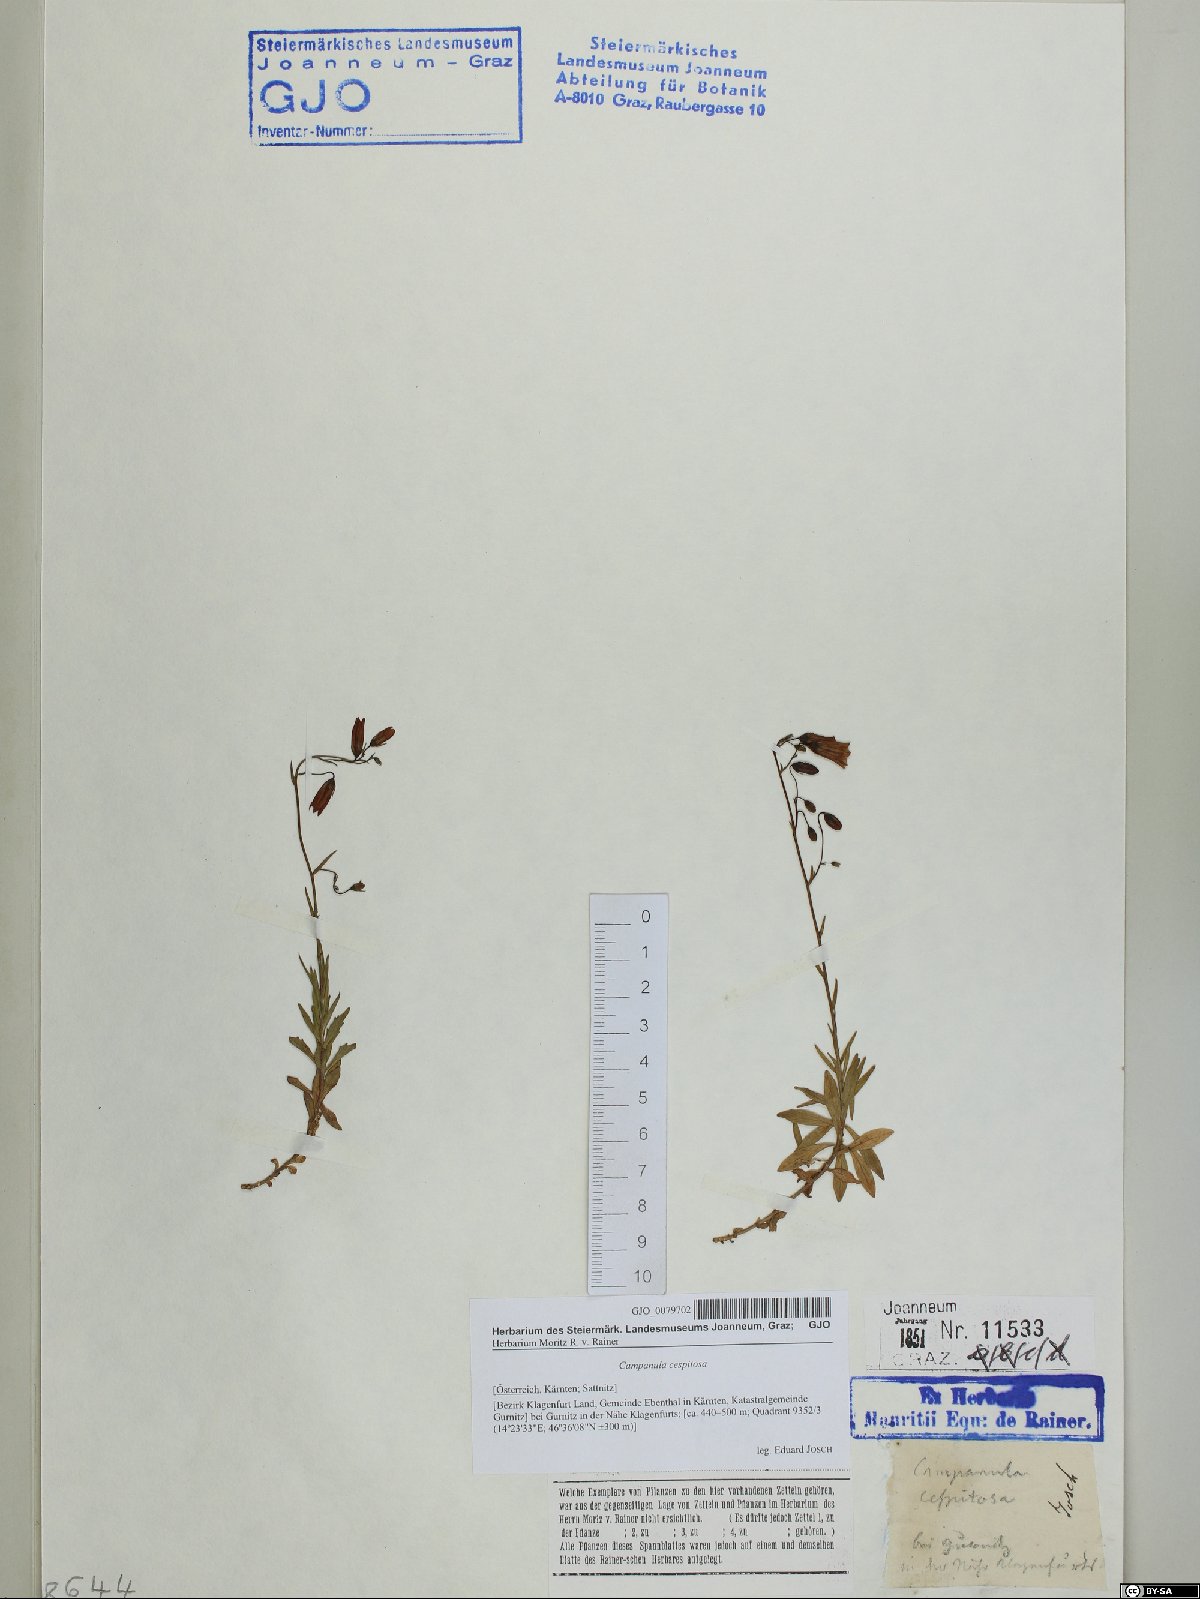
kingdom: Plantae
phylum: Tracheophyta
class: Magnoliopsida
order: Asterales
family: Campanulaceae
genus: Campanula
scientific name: Campanula cespitosa
